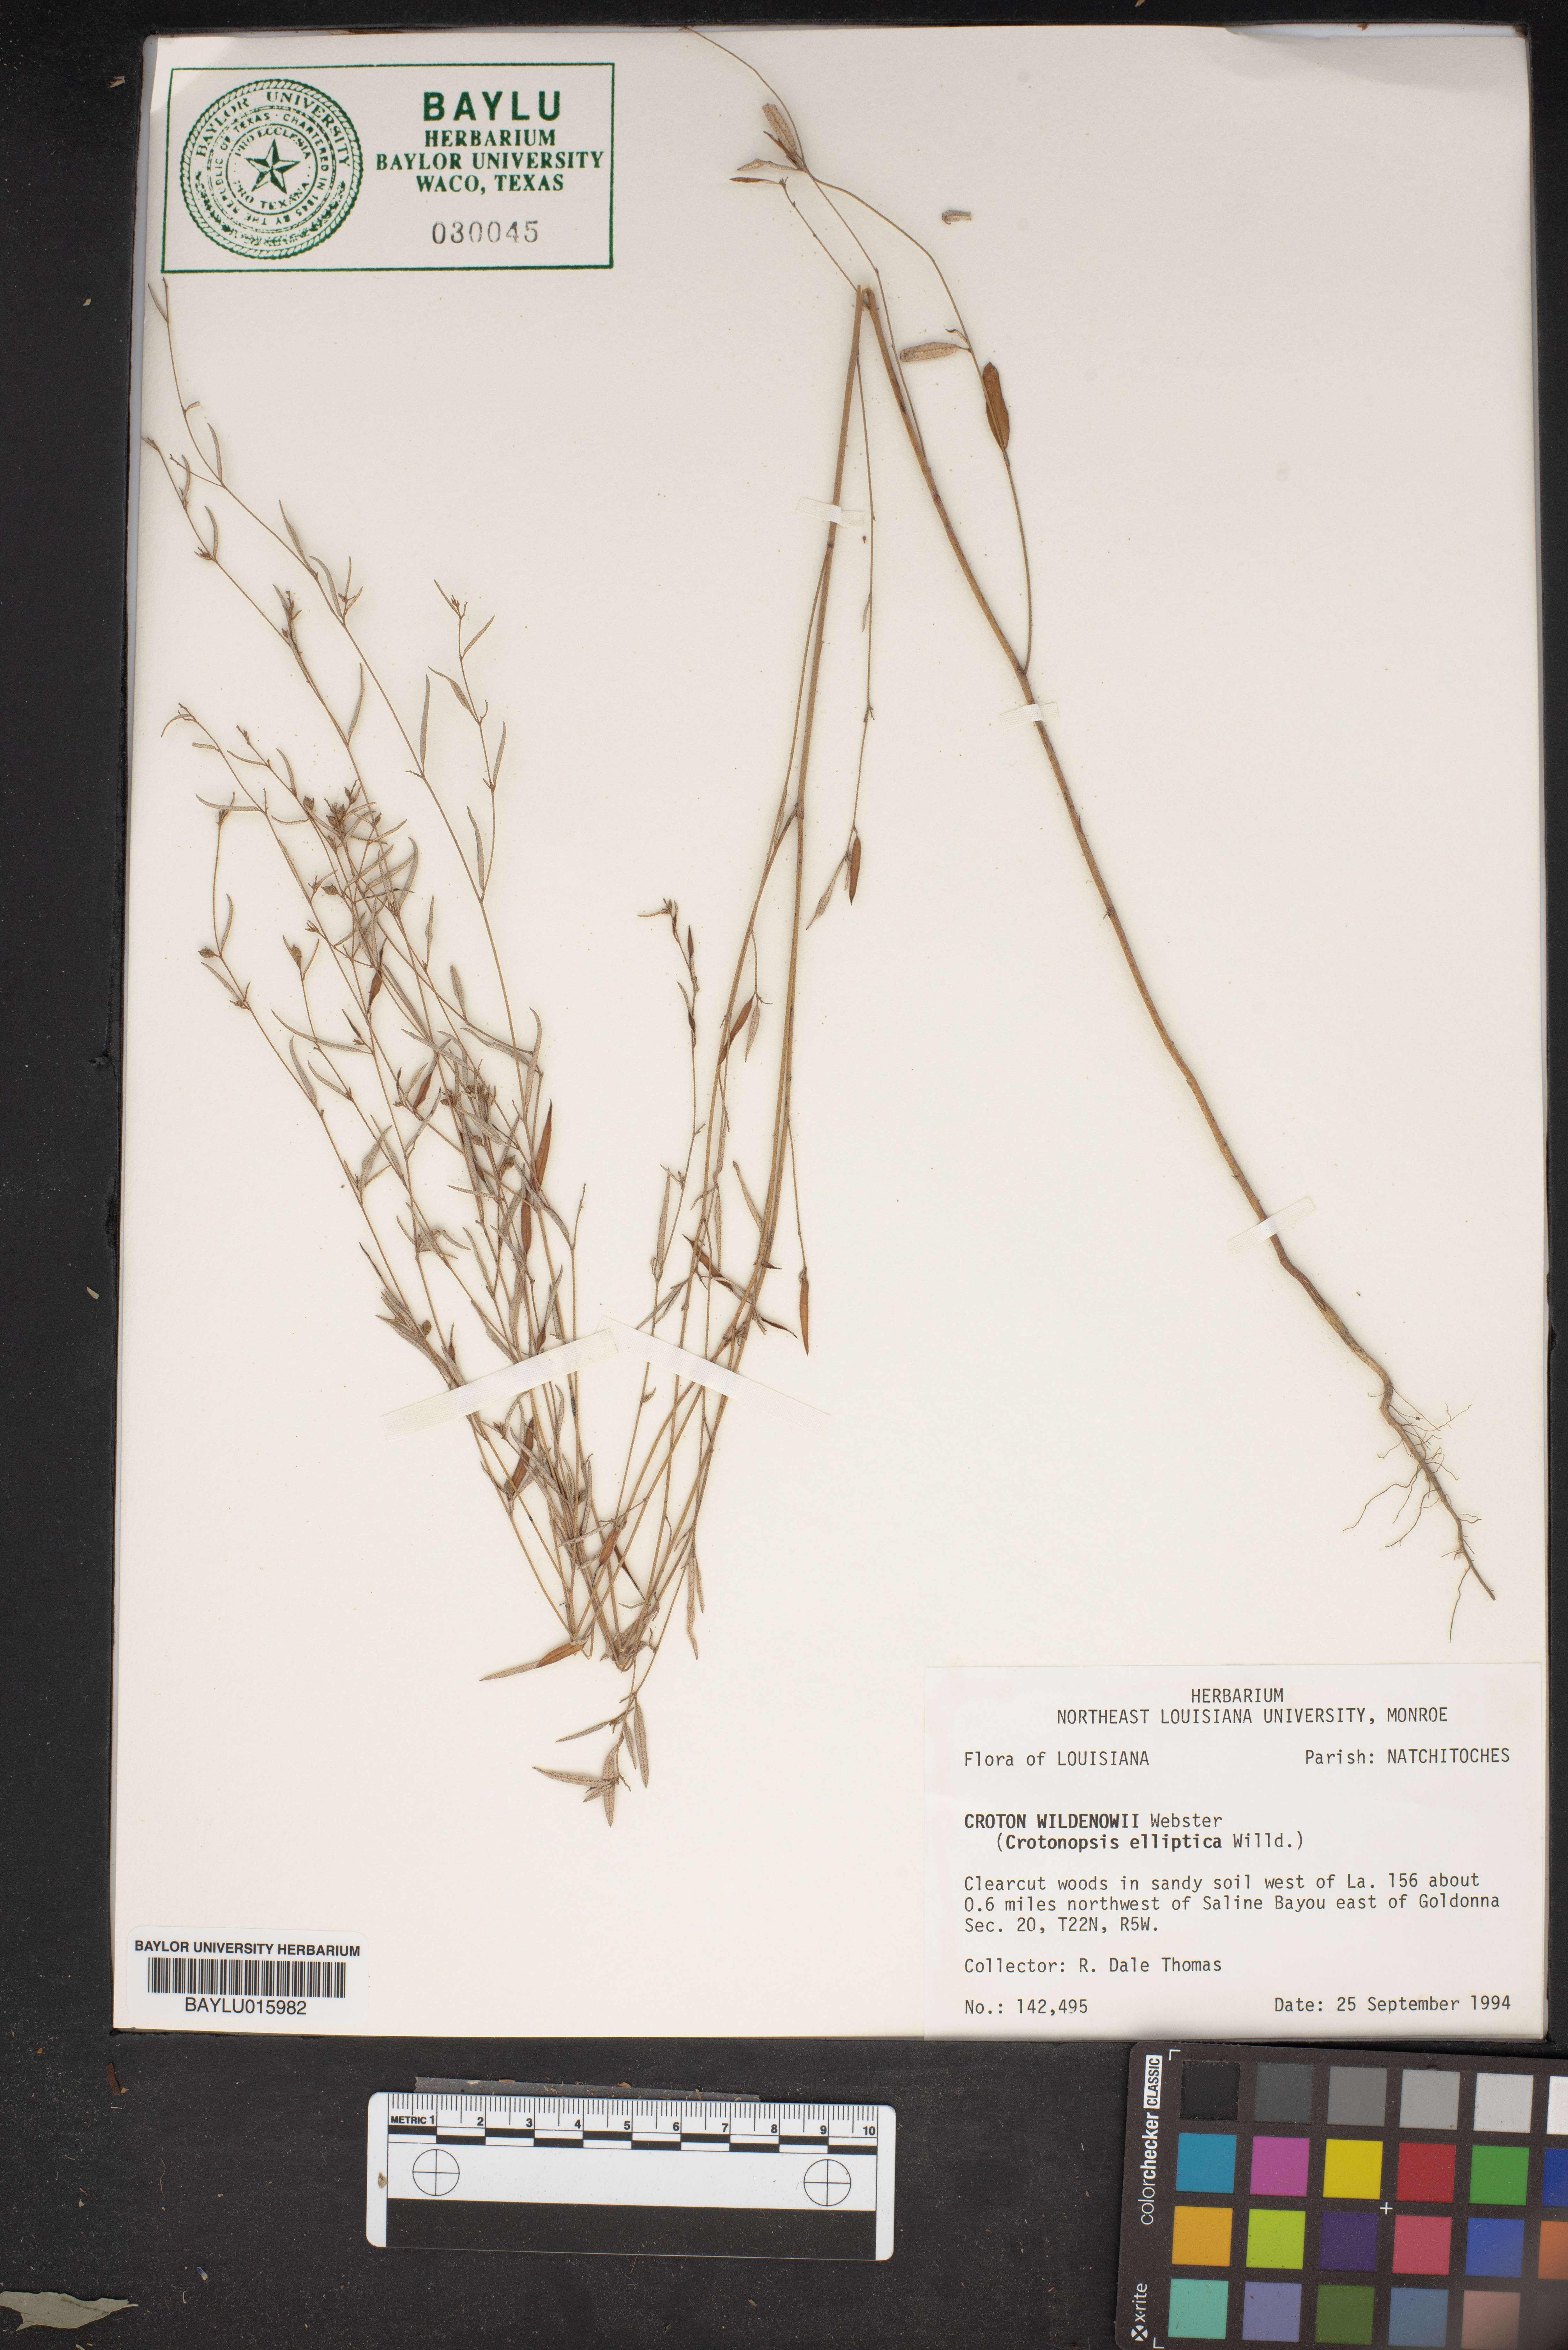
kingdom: Plantae
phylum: Tracheophyta
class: Magnoliopsida
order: Malpighiales
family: Euphorbiaceae
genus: Croton
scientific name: Croton michauxii
